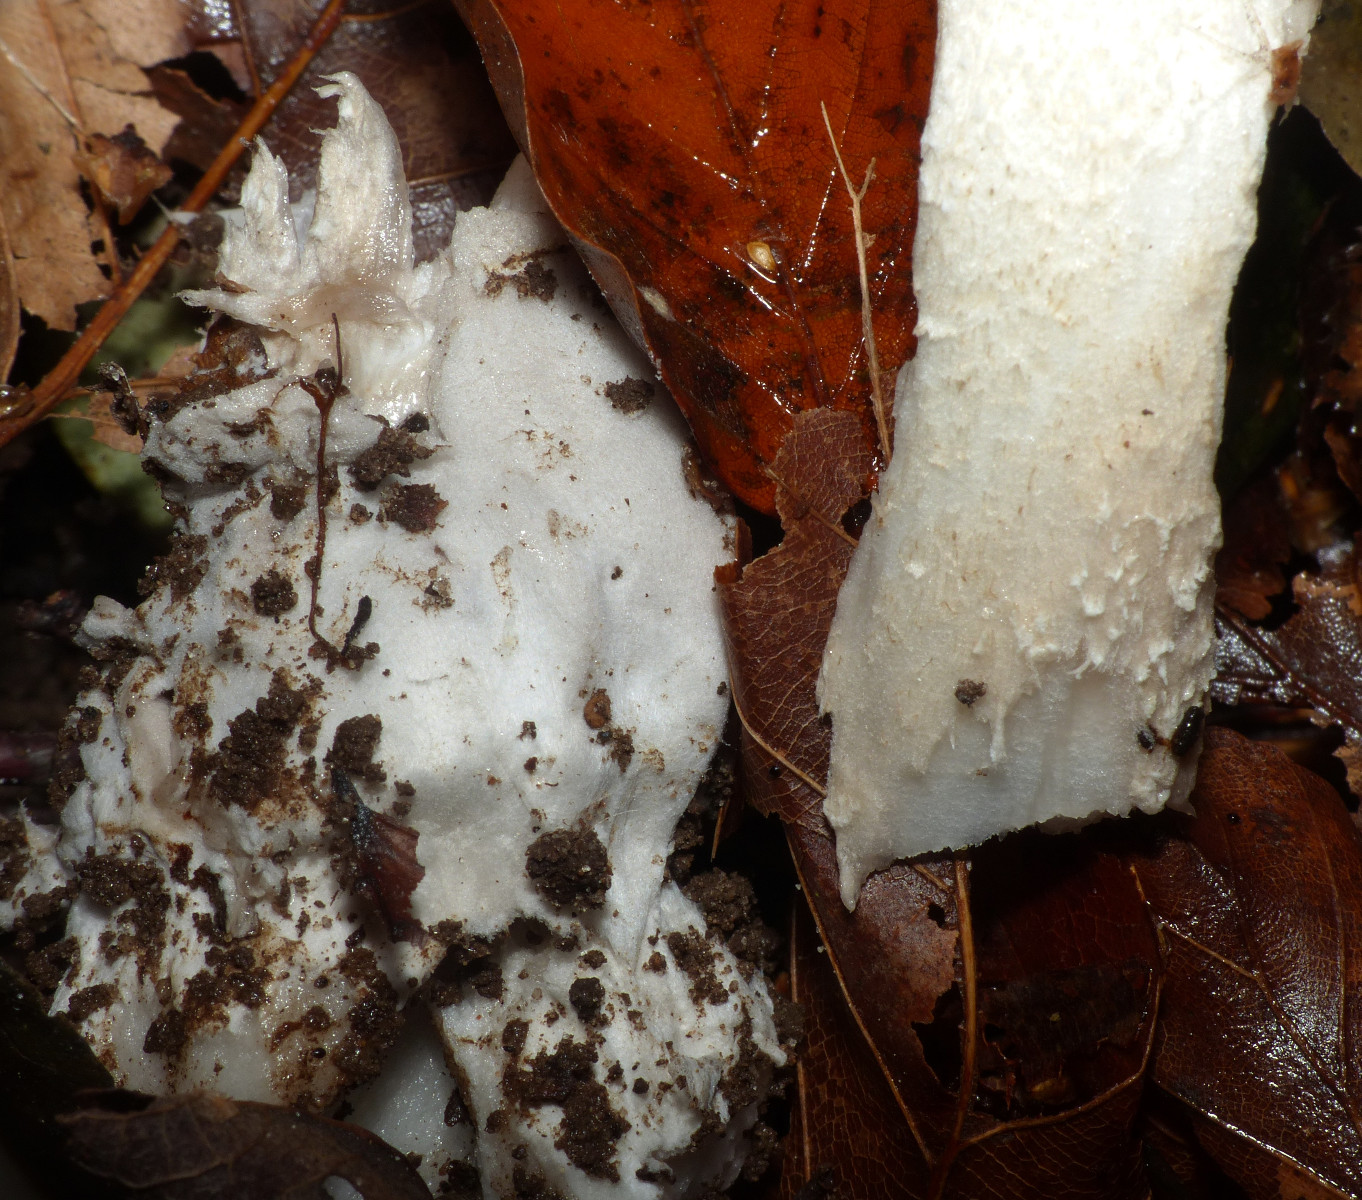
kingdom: Fungi
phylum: Basidiomycota
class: Agaricomycetes
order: Agaricales
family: Amanitaceae
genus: Amanita
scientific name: Amanita vaginata
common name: grå kam-fluesvamp
